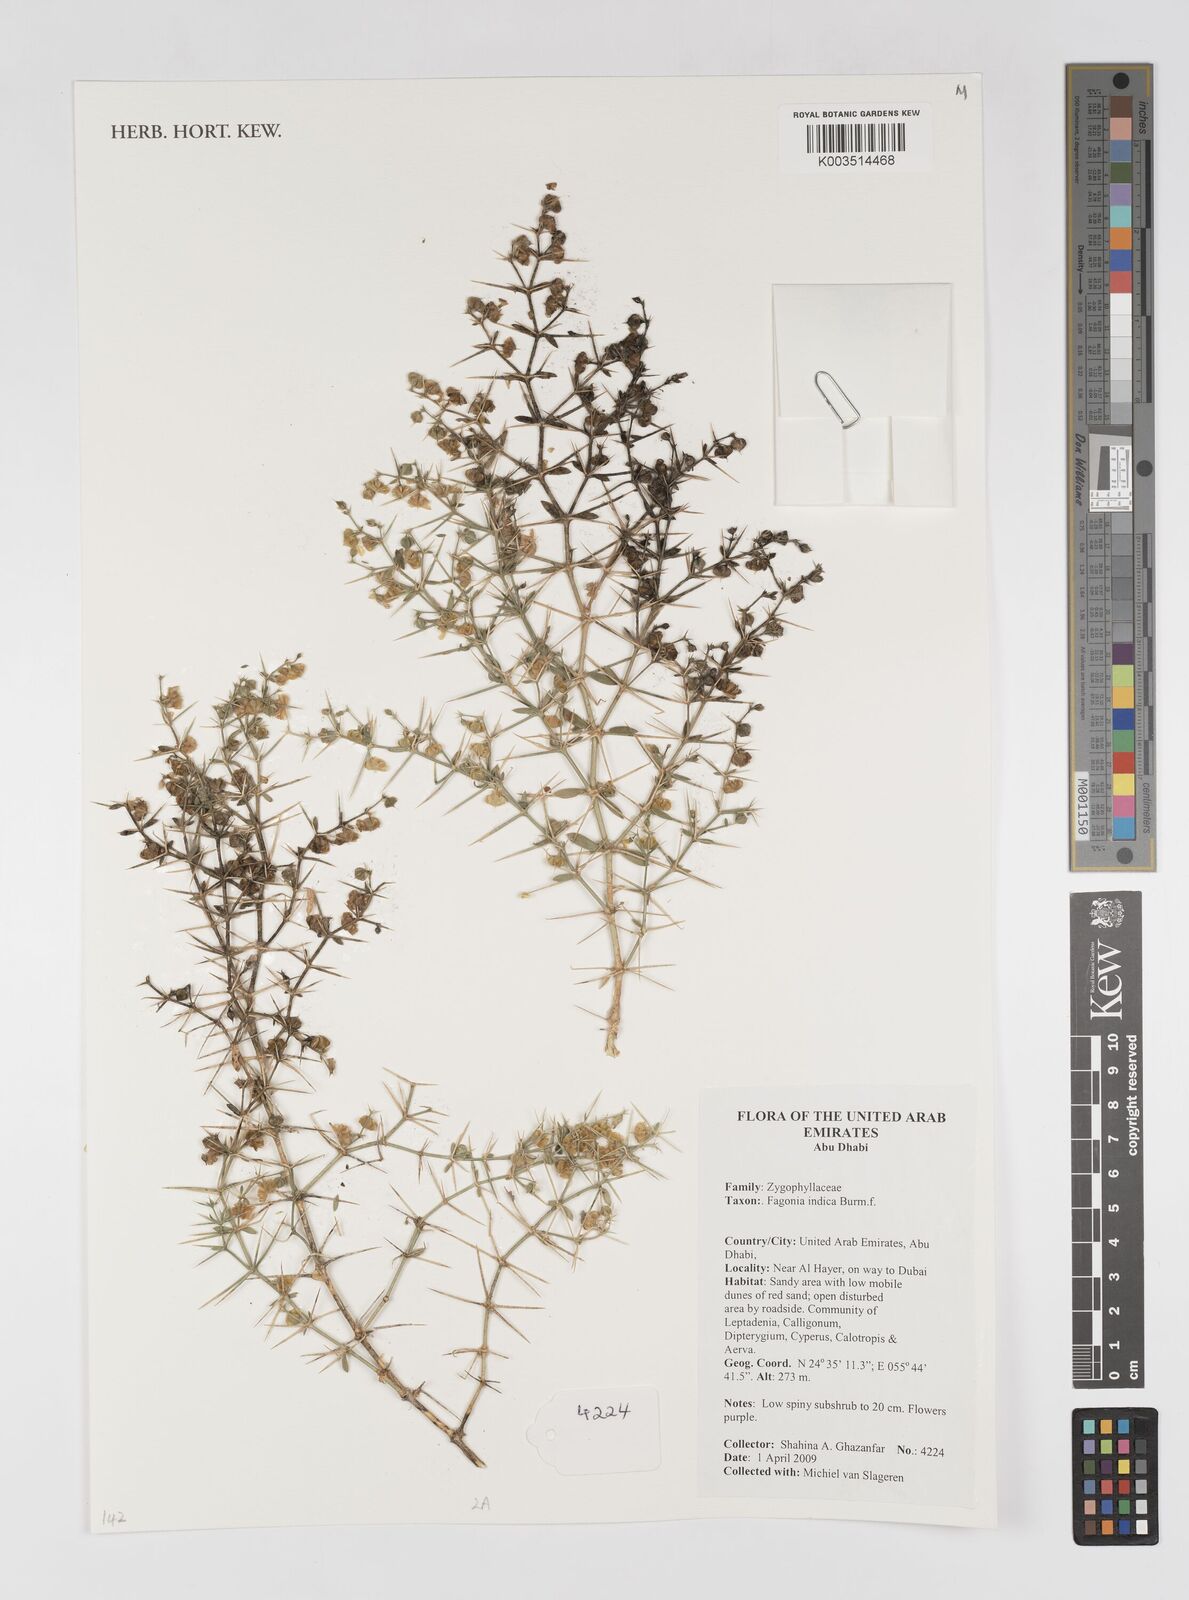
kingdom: Plantae
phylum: Tracheophyta
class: Magnoliopsida
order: Zygophyllales
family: Zygophyllaceae
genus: Fagonia
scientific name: Fagonia indica
